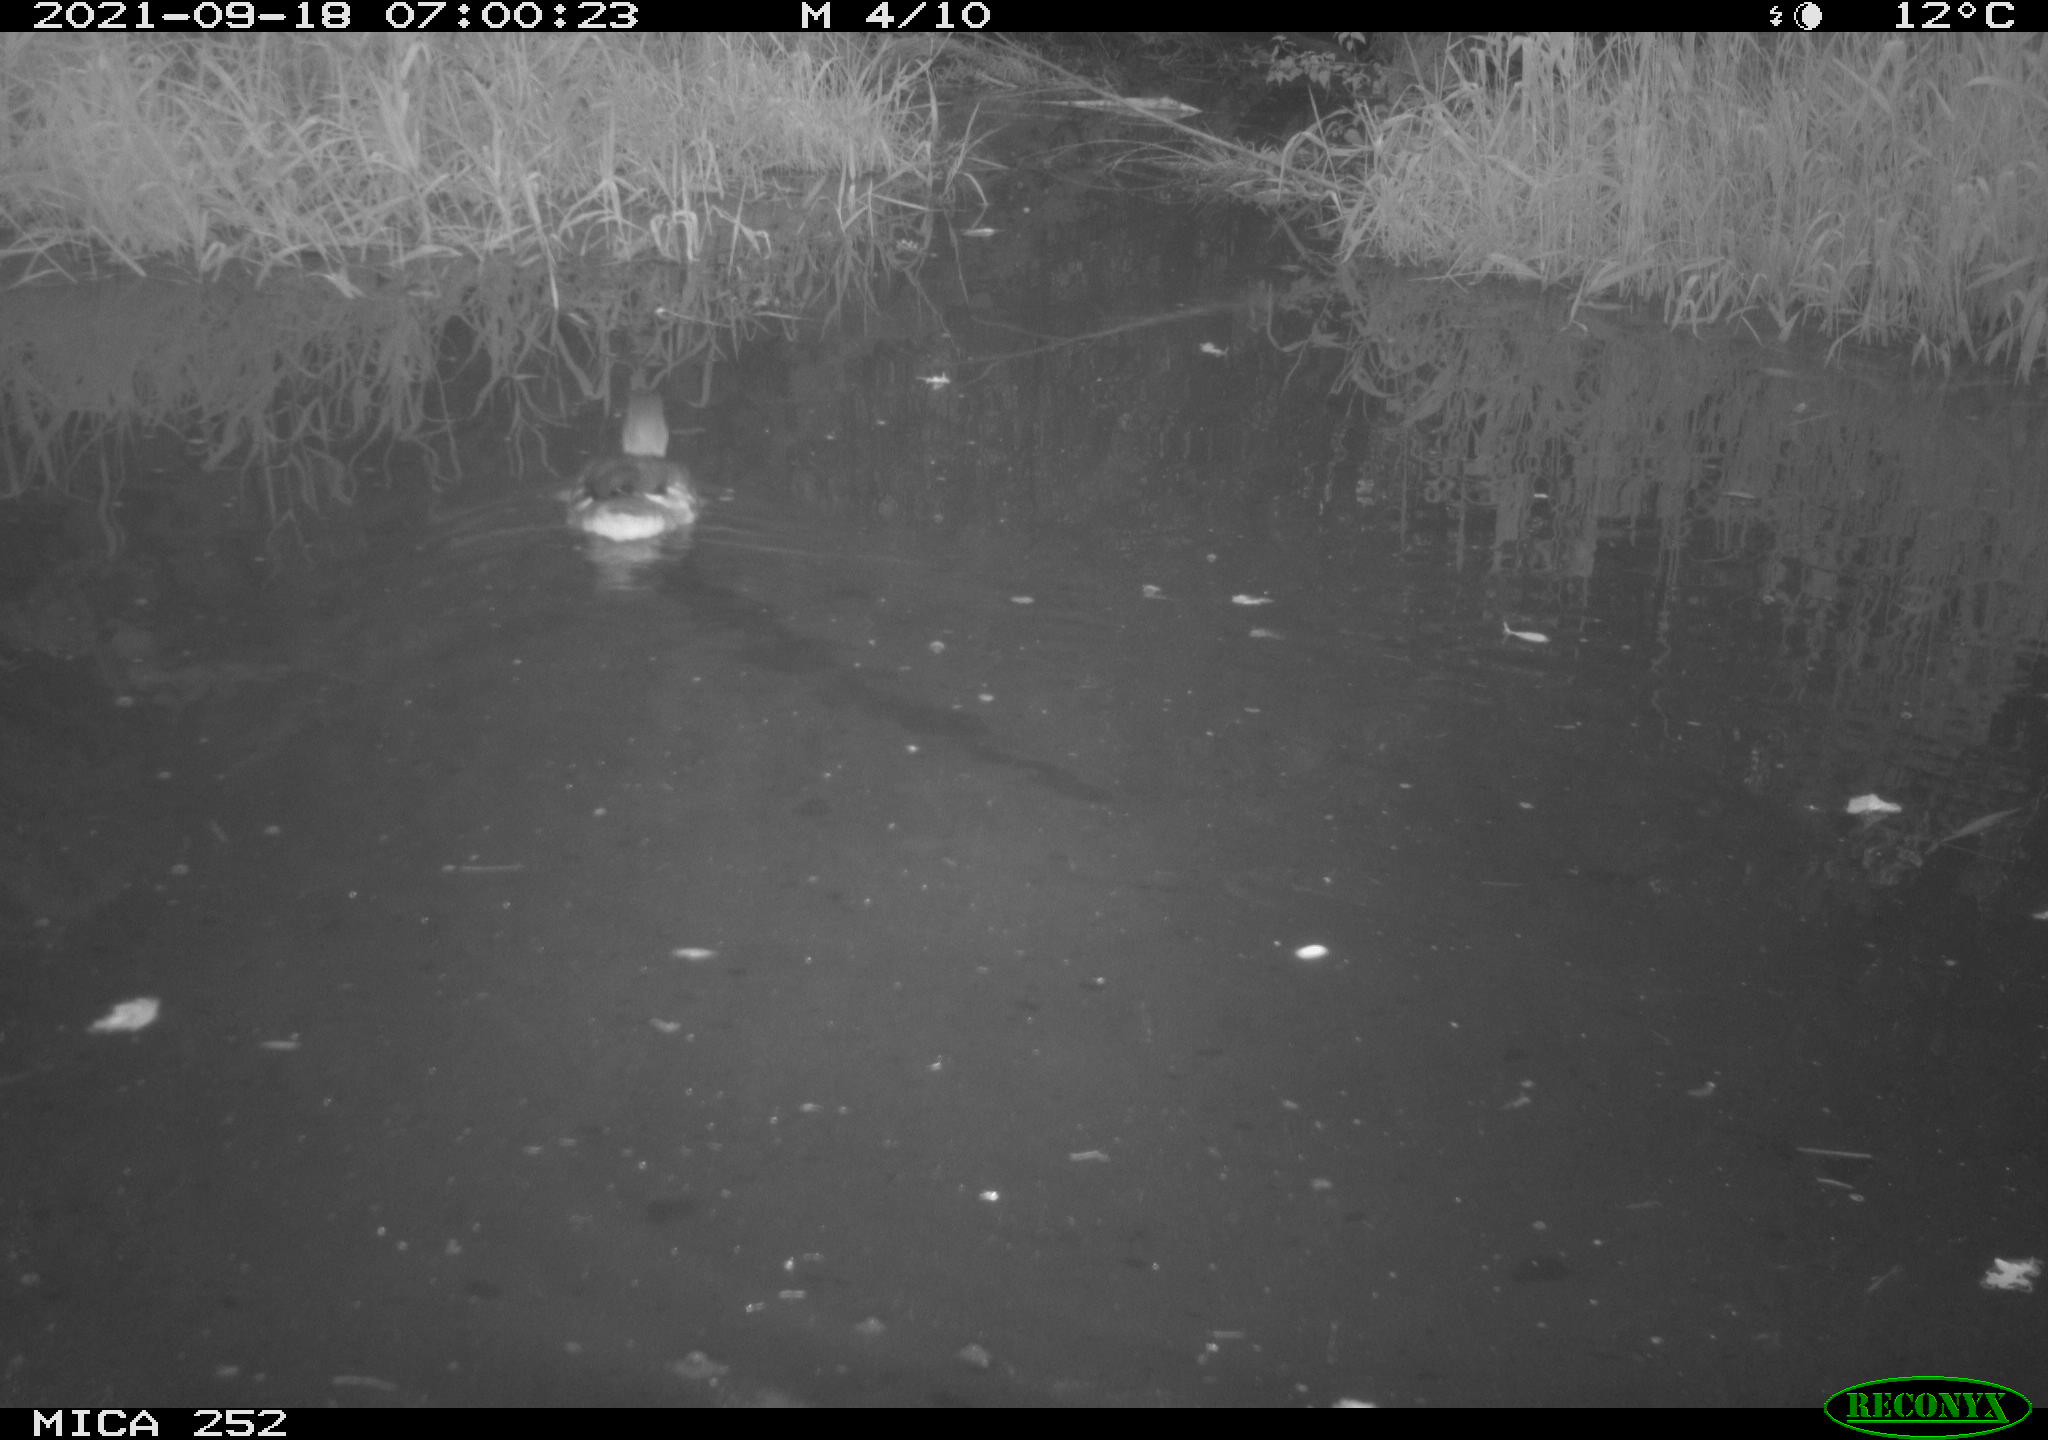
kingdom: Animalia
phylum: Chordata
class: Aves
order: Anseriformes
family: Anatidae
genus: Aix
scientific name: Aix galericulata
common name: Mandarin duck
